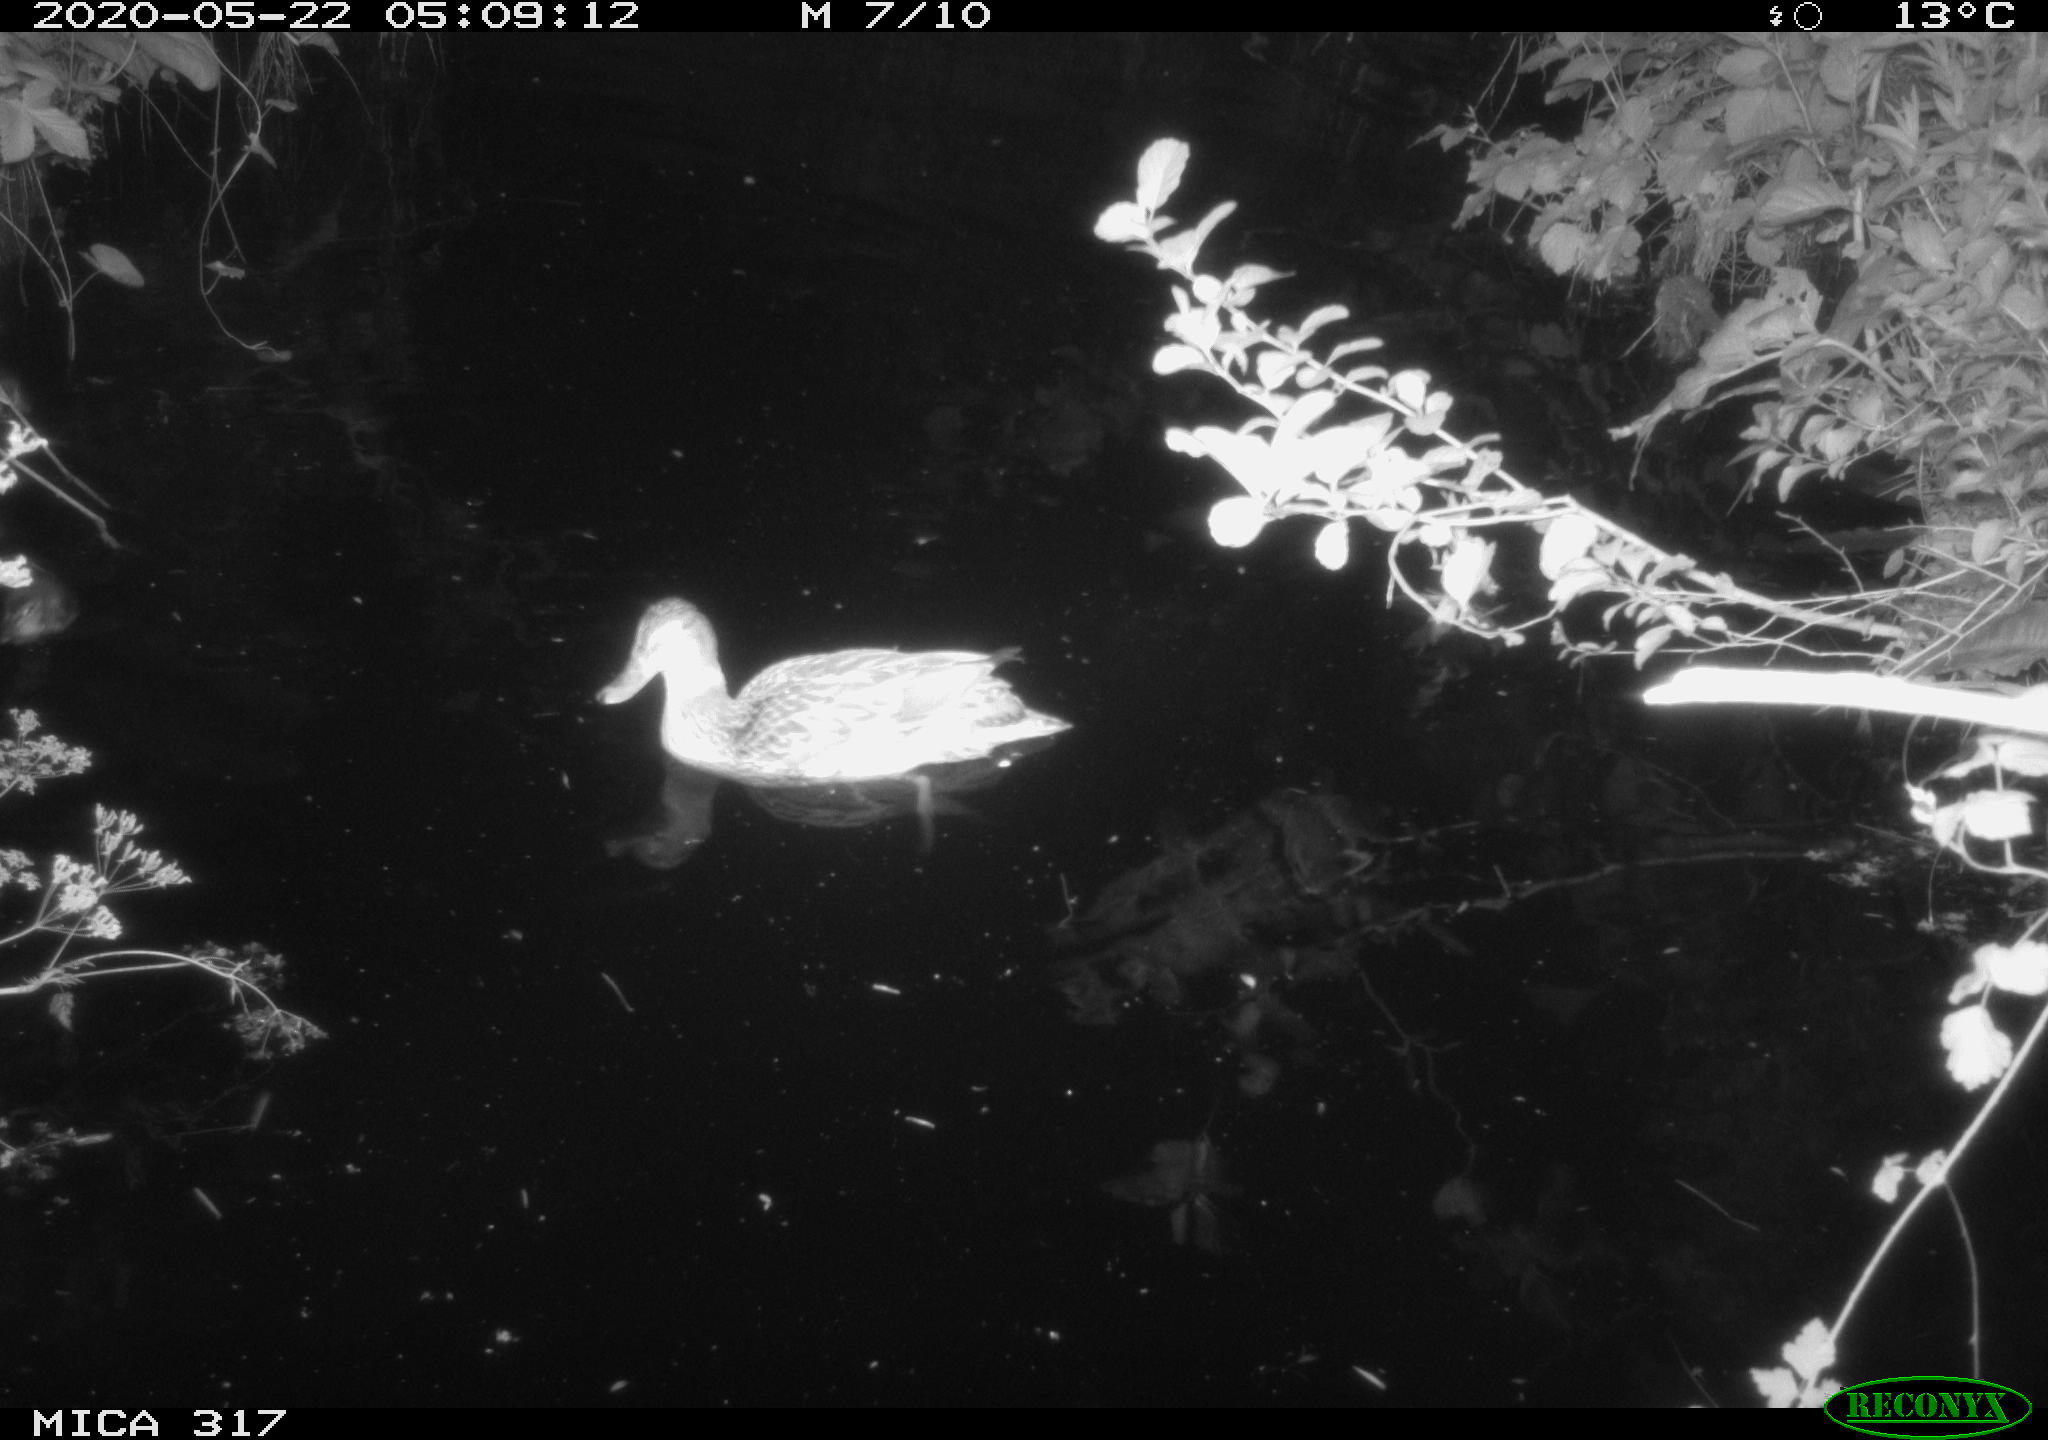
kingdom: Animalia
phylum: Chordata
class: Aves
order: Anseriformes
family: Anatidae
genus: Anas
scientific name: Anas platyrhynchos
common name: Mallard
